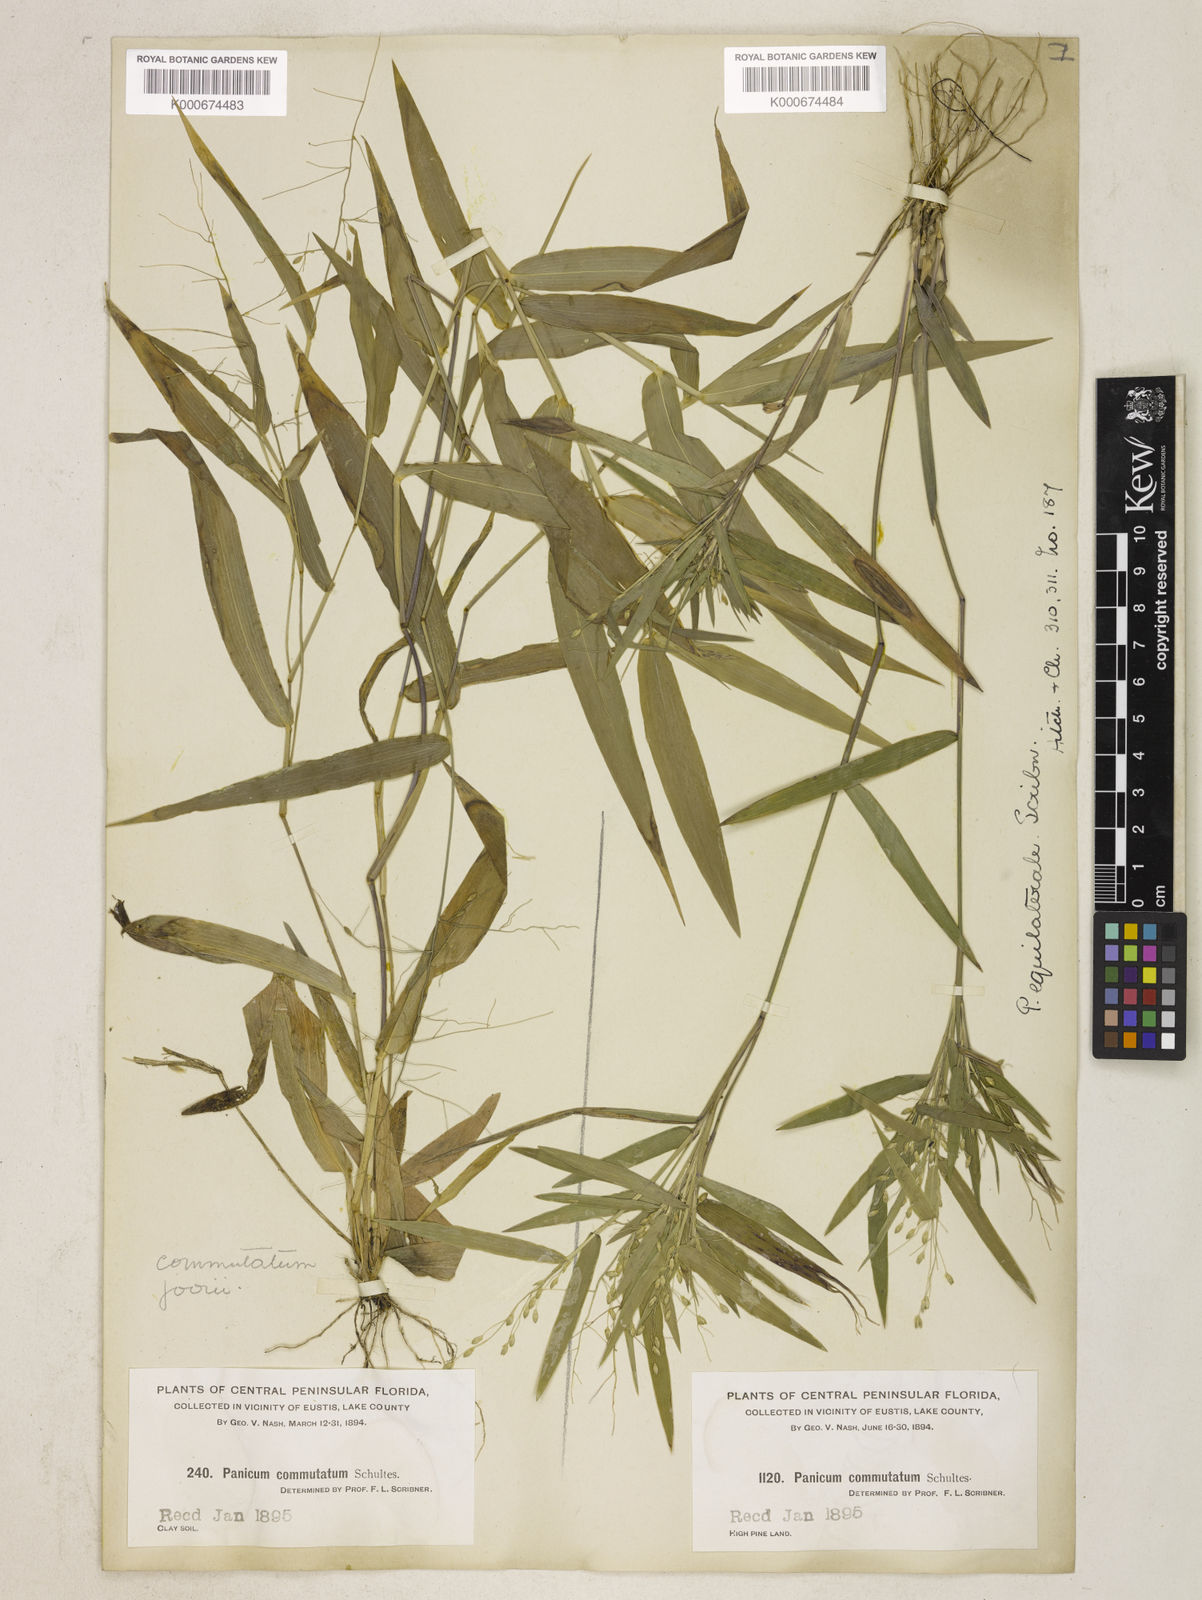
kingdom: Plantae
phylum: Tracheophyta
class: Liliopsida
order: Poales
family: Poaceae
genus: Dichanthelium
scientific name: Dichanthelium equilaterale
